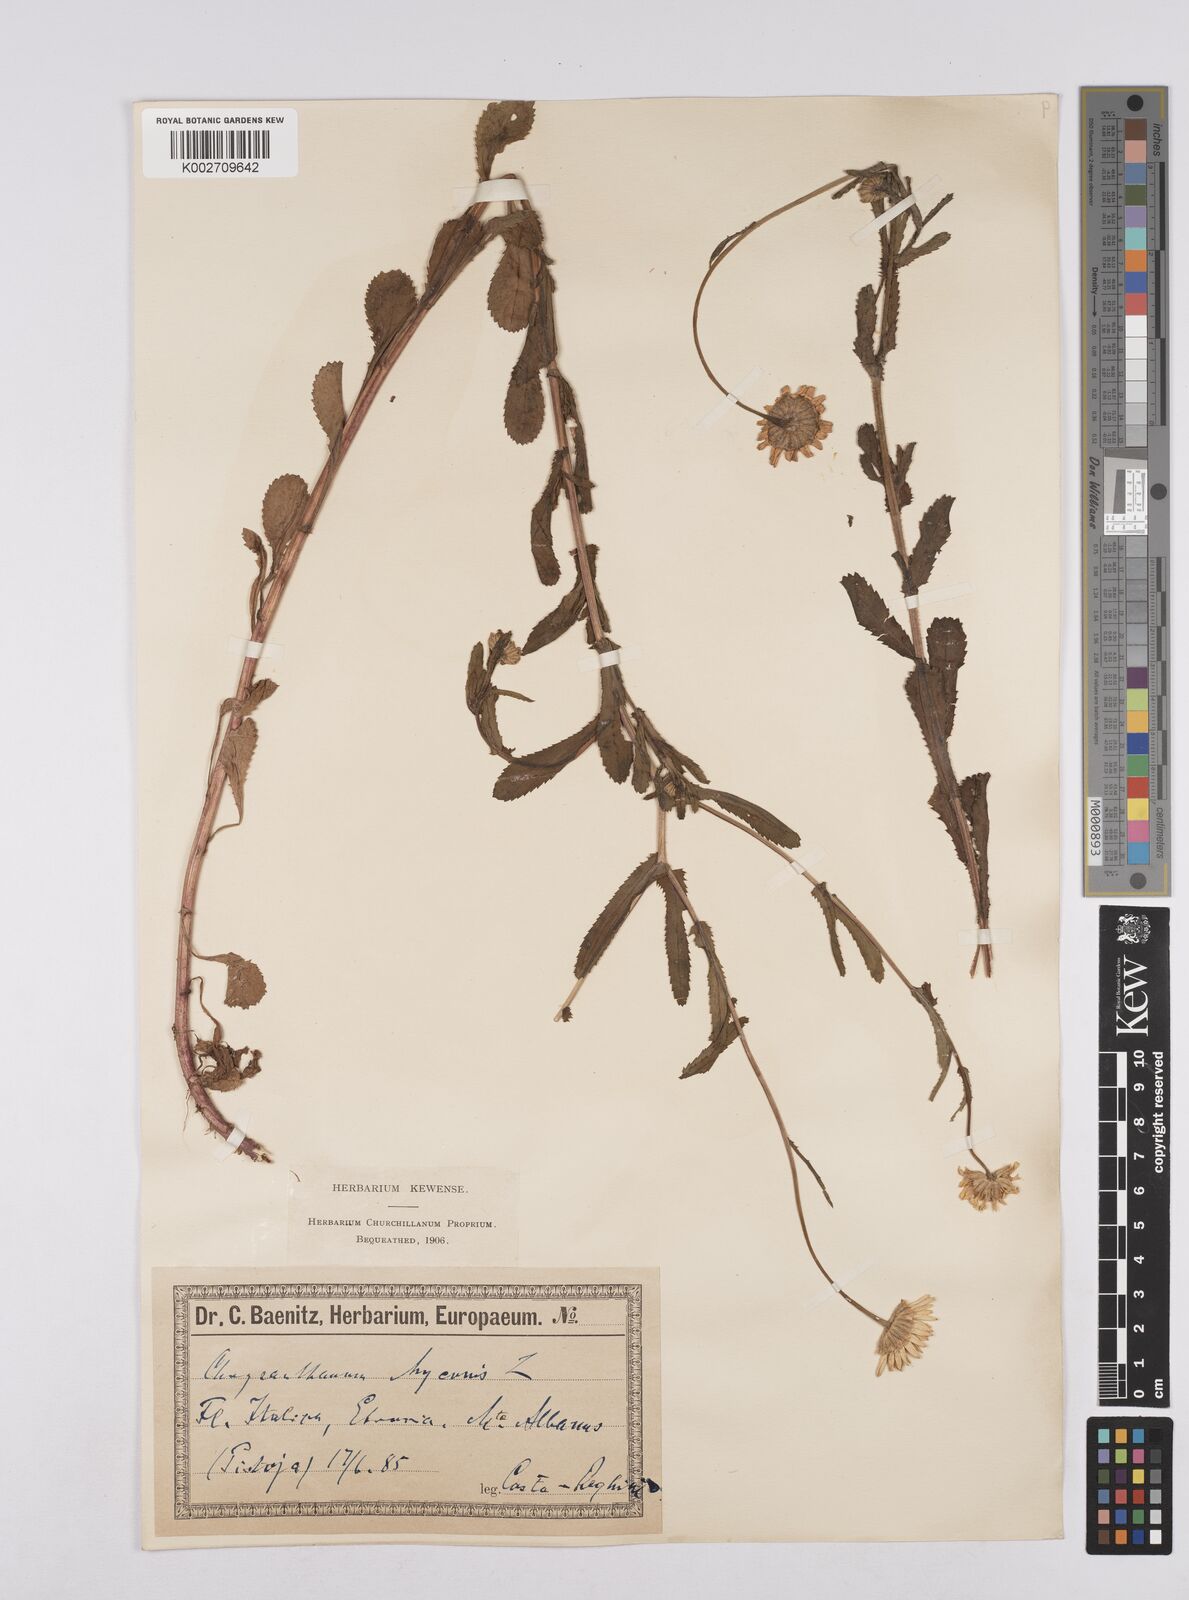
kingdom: Plantae
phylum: Tracheophyta
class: Magnoliopsida
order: Asterales
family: Asteraceae
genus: Coleostephus
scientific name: Coleostephus myconis
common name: Mediterranean marigold
